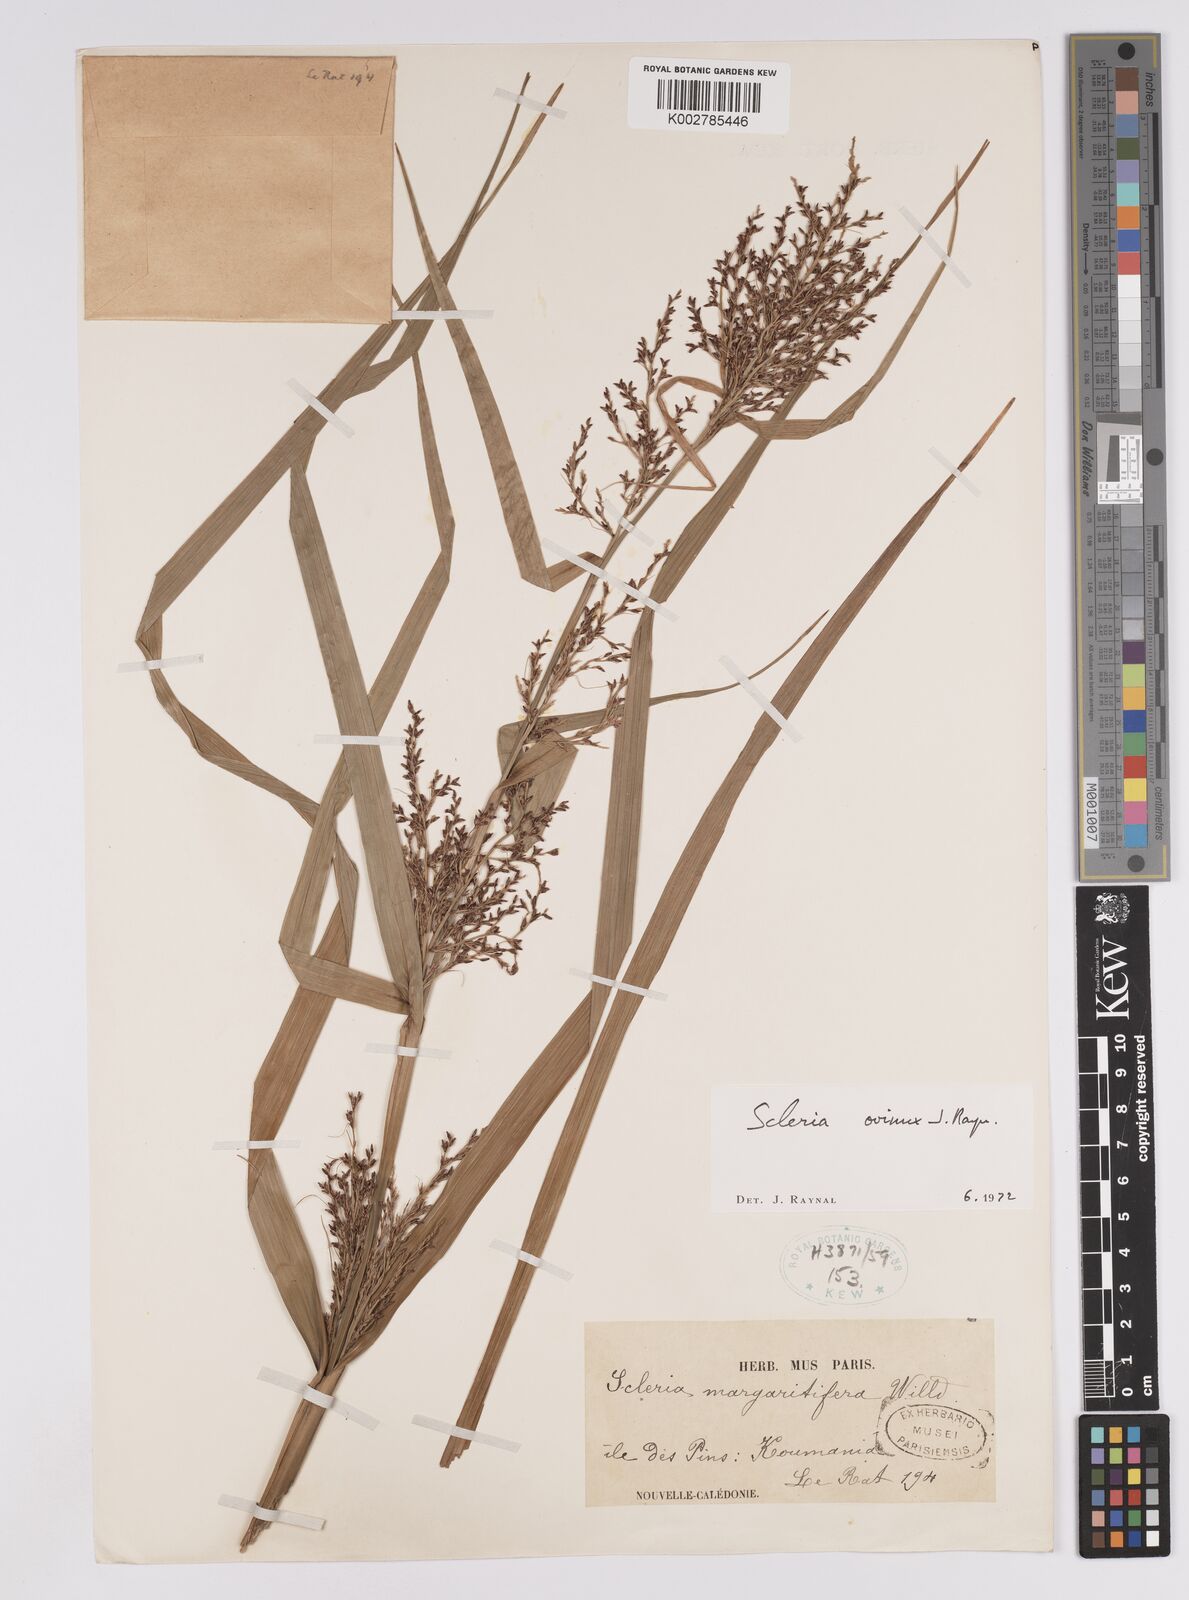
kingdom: Plantae
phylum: Tracheophyta
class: Liliopsida
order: Poales
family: Cyperaceae
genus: Scleria
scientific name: Scleria ovinux
